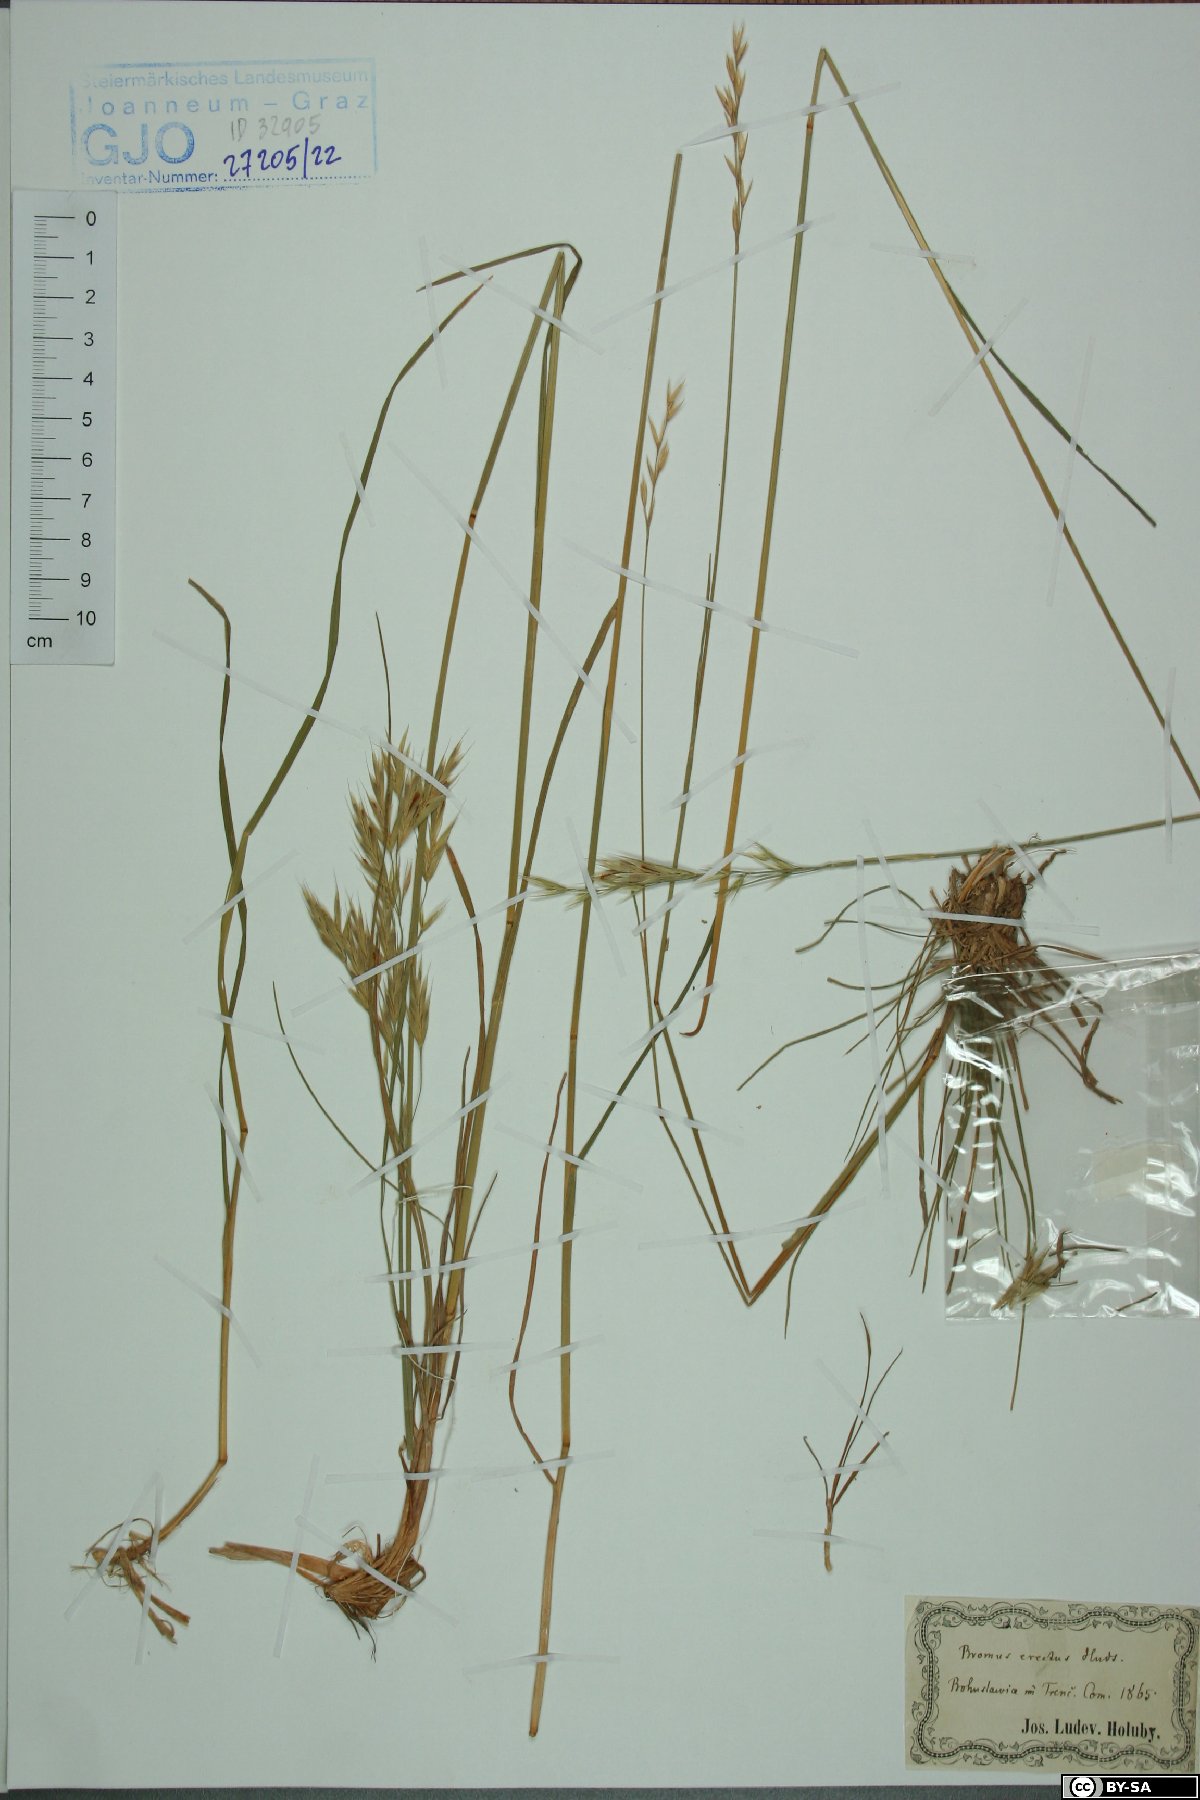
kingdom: Plantae
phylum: Tracheophyta
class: Liliopsida
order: Poales
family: Poaceae
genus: Bromus
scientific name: Bromus erectus
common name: Erect brome
